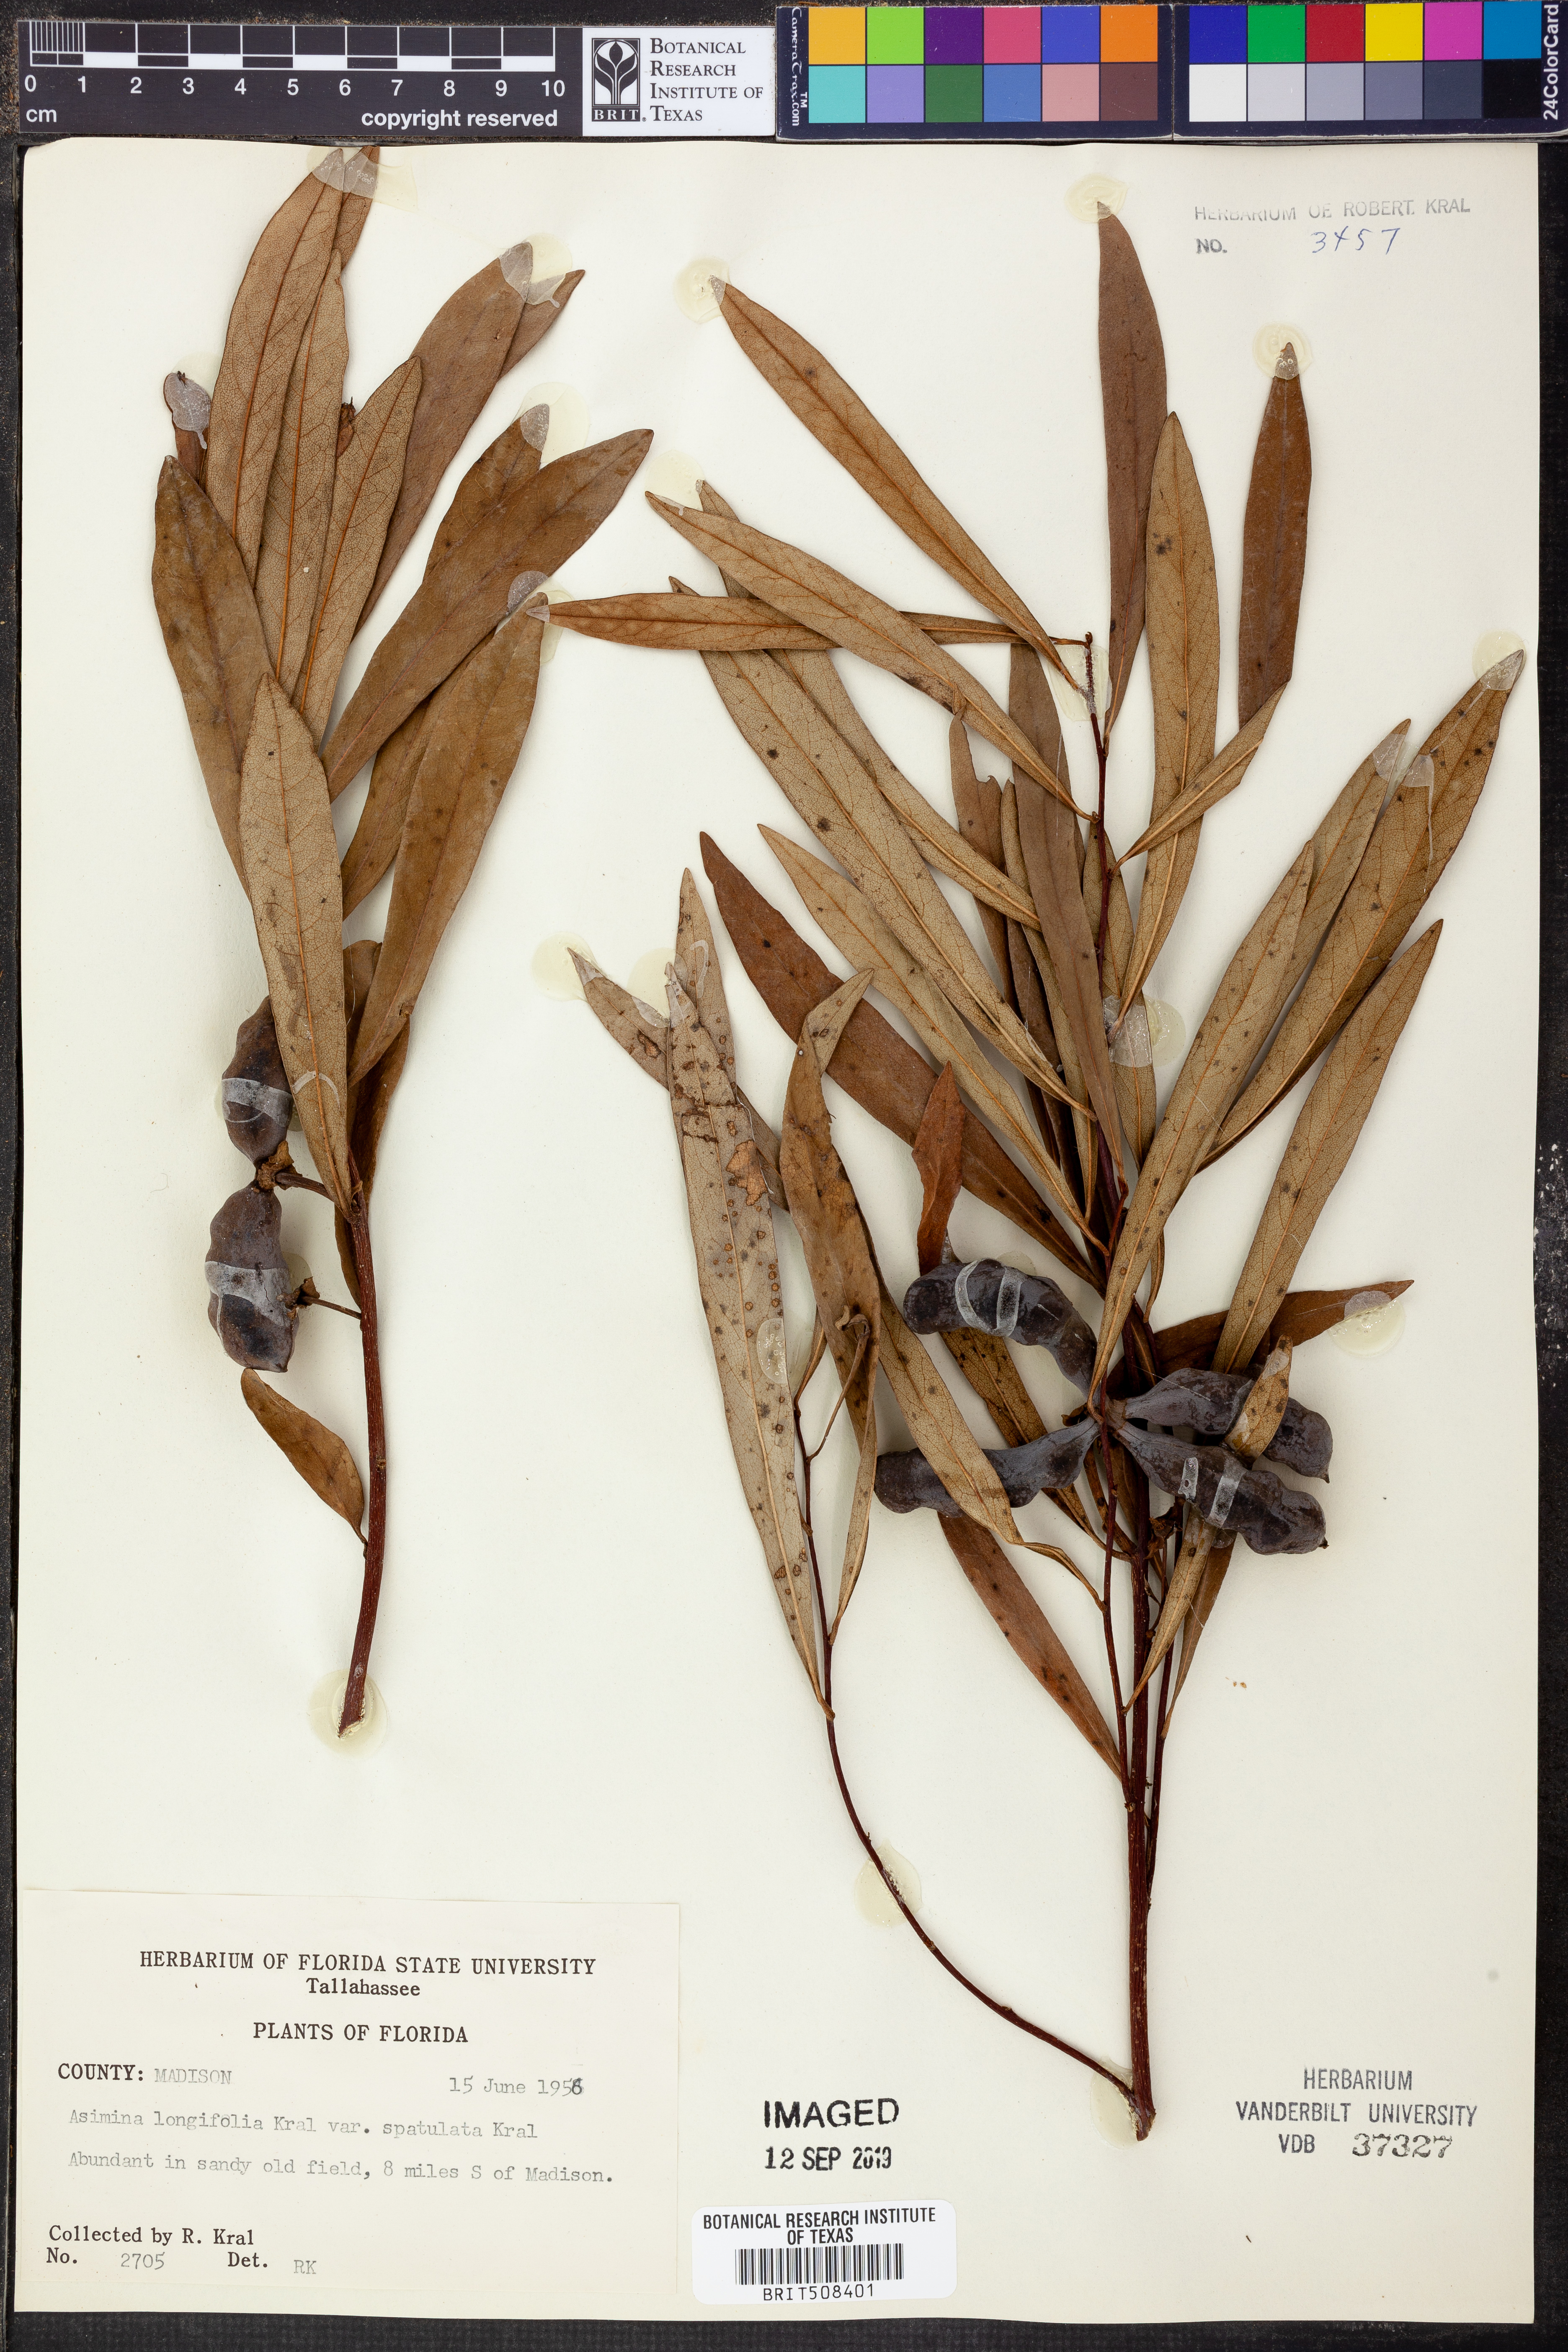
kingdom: Plantae
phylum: Tracheophyta
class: Magnoliopsida
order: Magnoliales
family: Annonaceae
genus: Asimina
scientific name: Asimina longifolia
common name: Polecatbush
